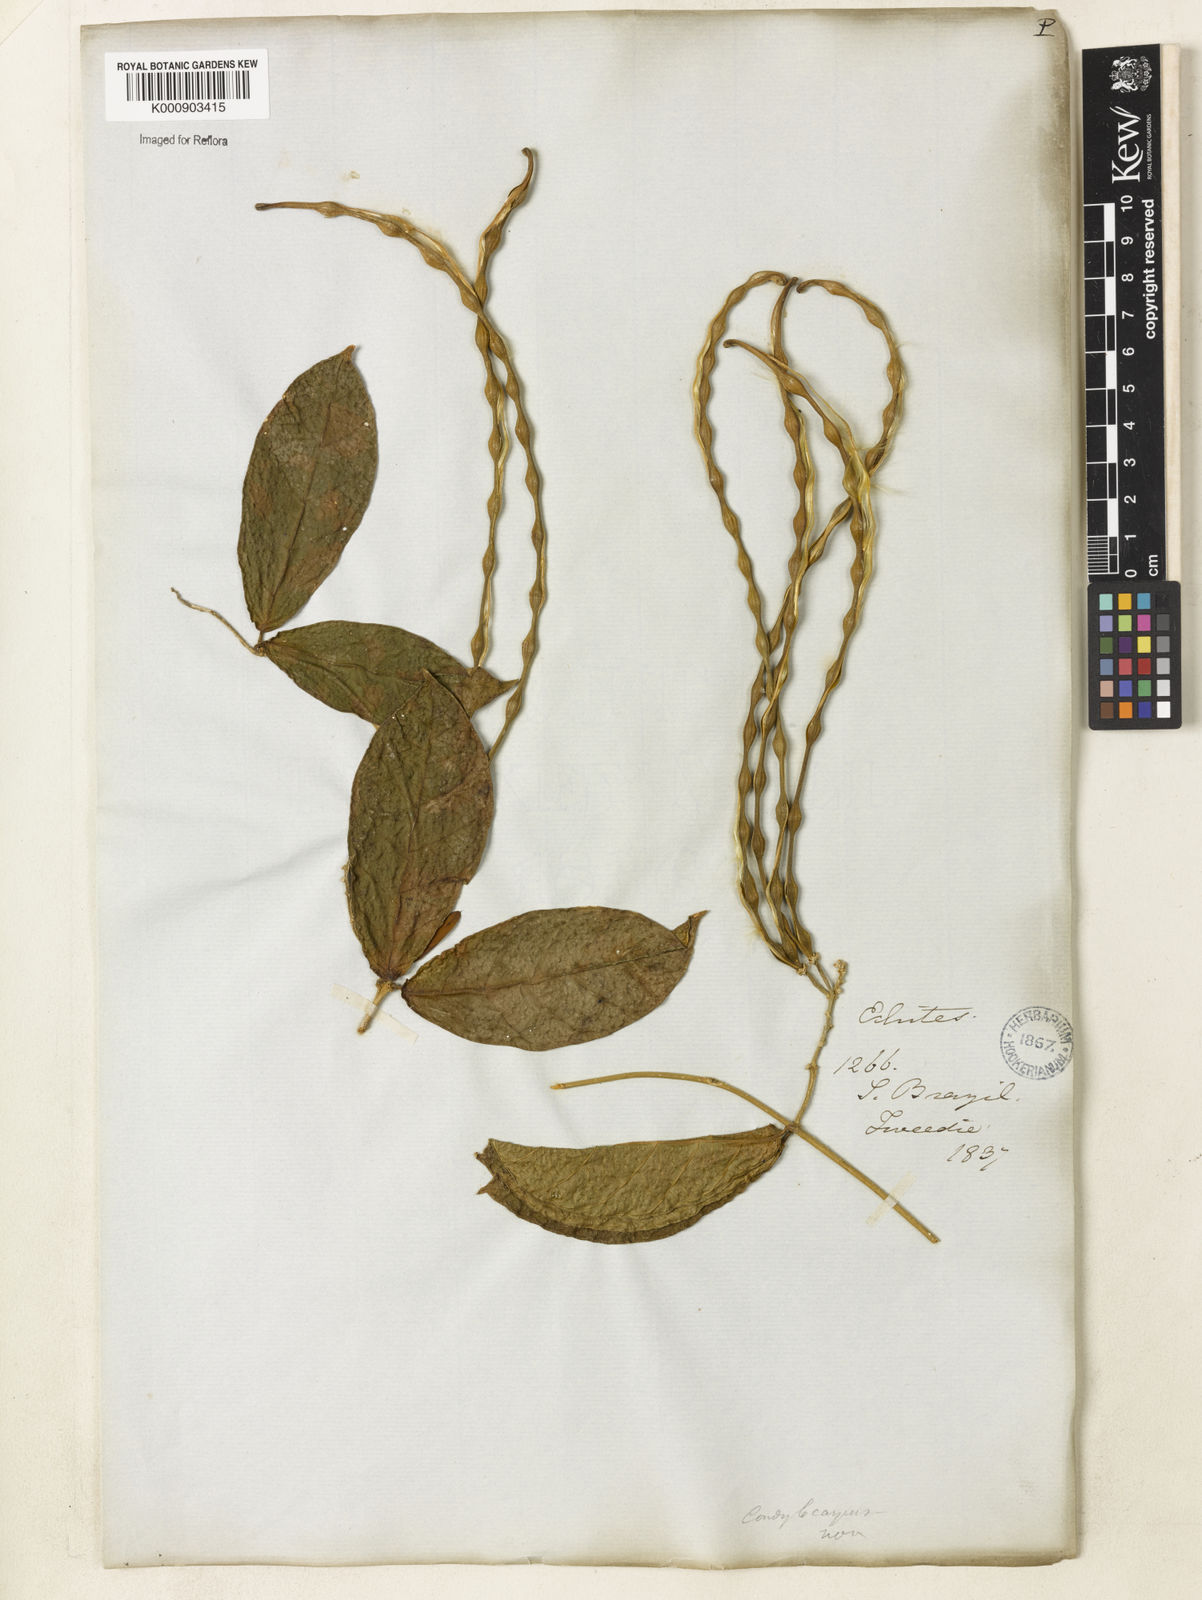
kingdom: Plantae
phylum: Tracheophyta
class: Magnoliopsida
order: Gentianales
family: Apocynaceae
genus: Prestonia
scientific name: Prestonia denticulata
